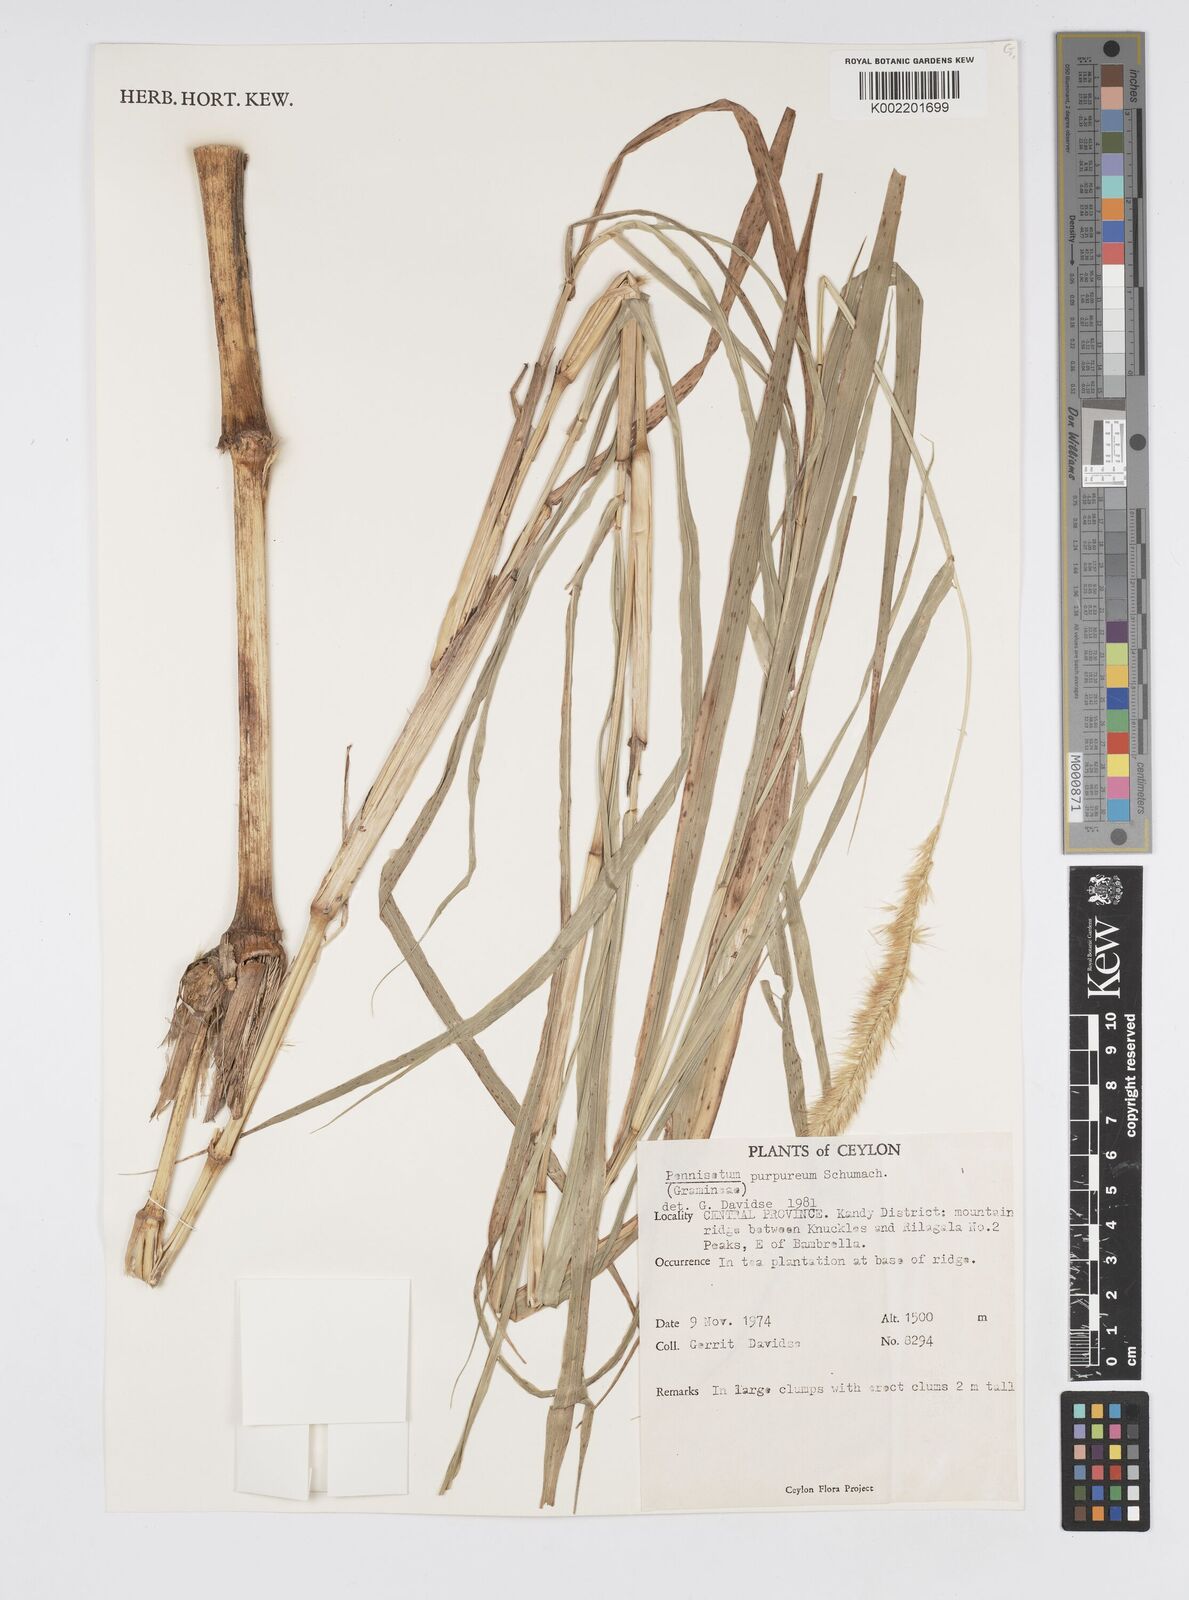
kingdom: Plantae
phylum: Tracheophyta
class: Liliopsida
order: Poales
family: Poaceae
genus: Cenchrus
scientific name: Cenchrus purpureus
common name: Elephant grass
